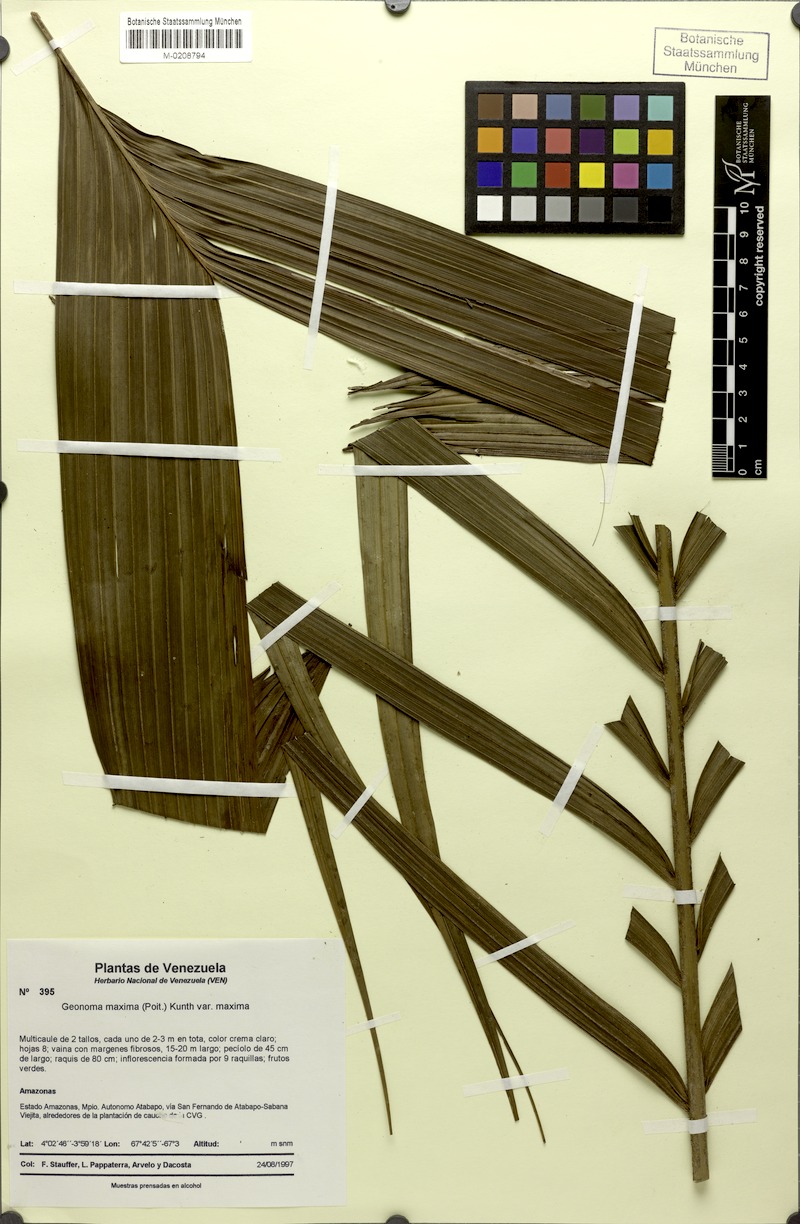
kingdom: Plantae
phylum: Tracheophyta
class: Liliopsida
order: Arecales
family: Arecaceae
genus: Geonoma
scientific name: Geonoma maxima
